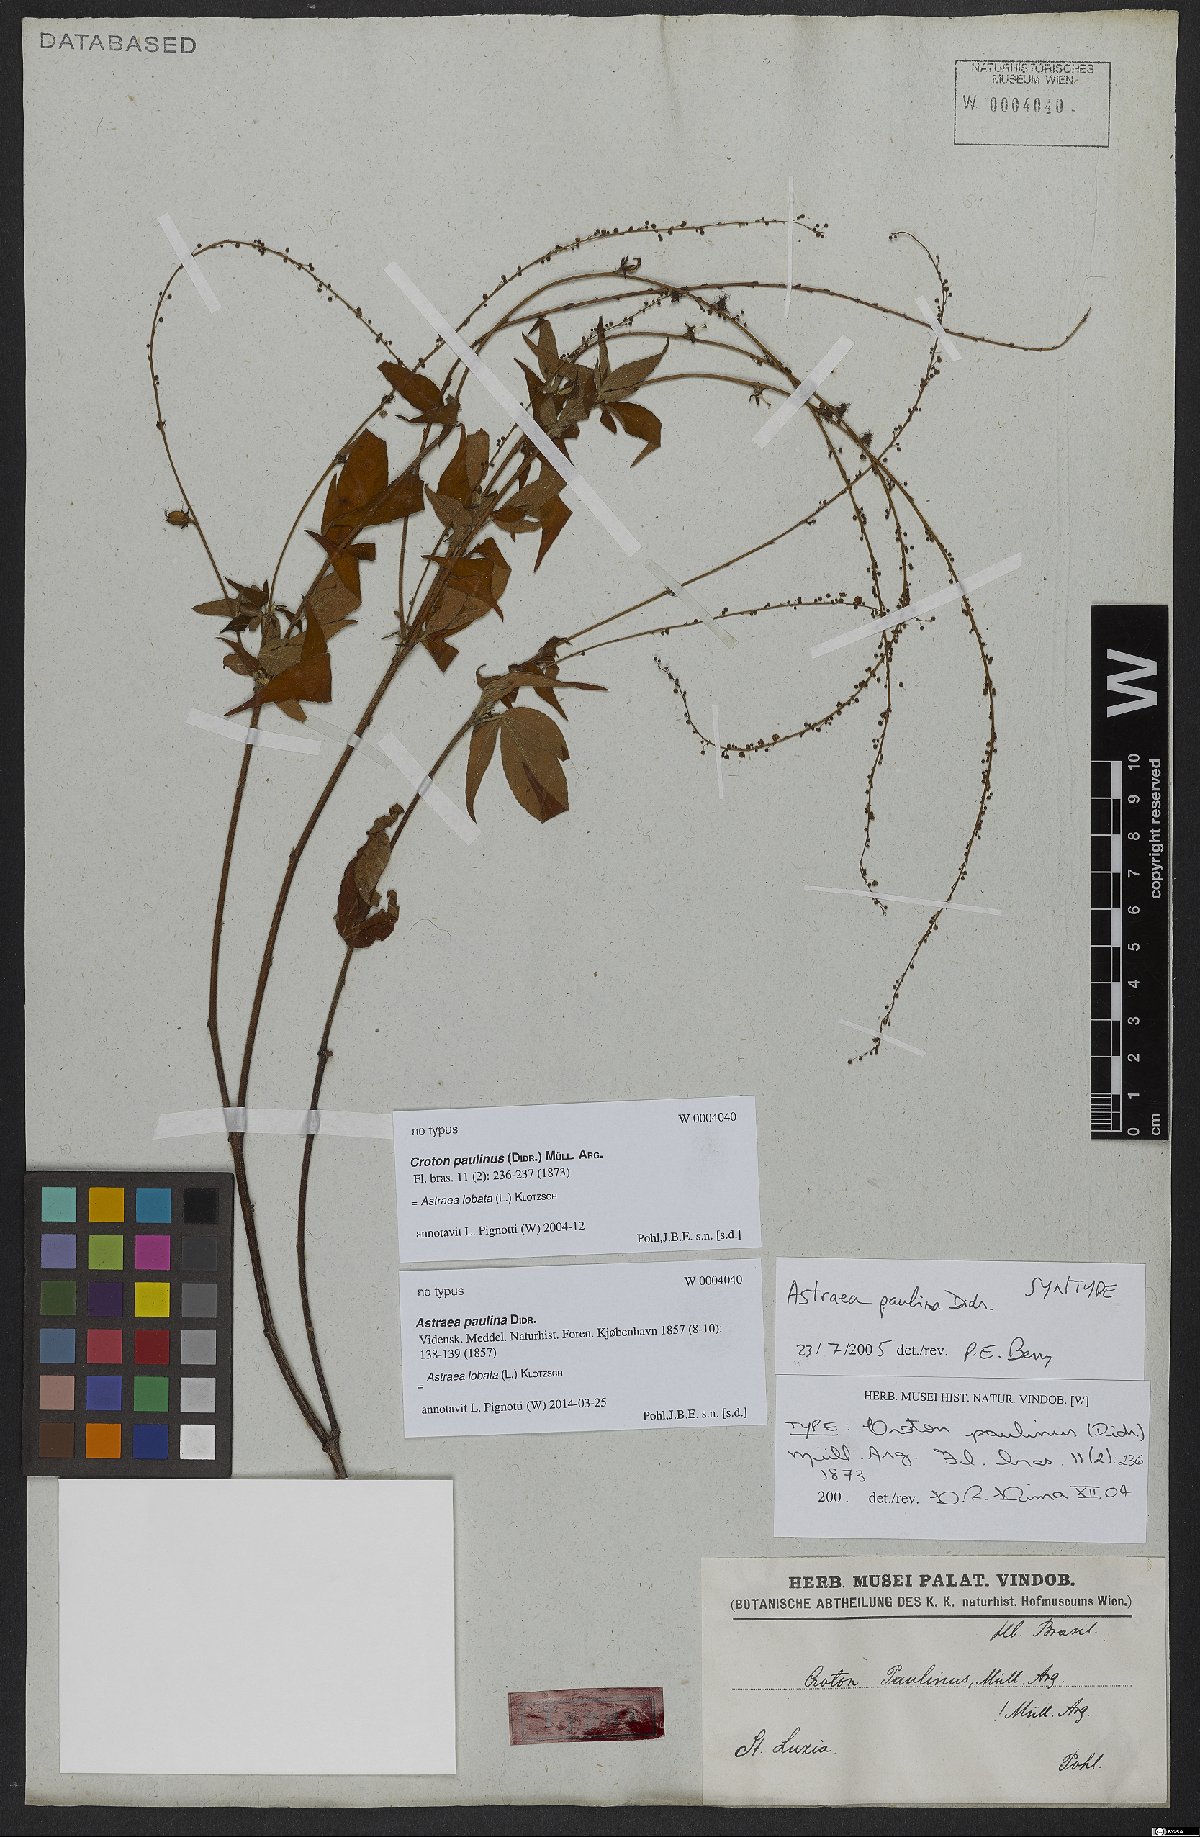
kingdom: Plantae
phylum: Tracheophyta
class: Magnoliopsida
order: Malpighiales
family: Euphorbiaceae
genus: Astraea
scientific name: Astraea lobata
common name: Lobed croton
